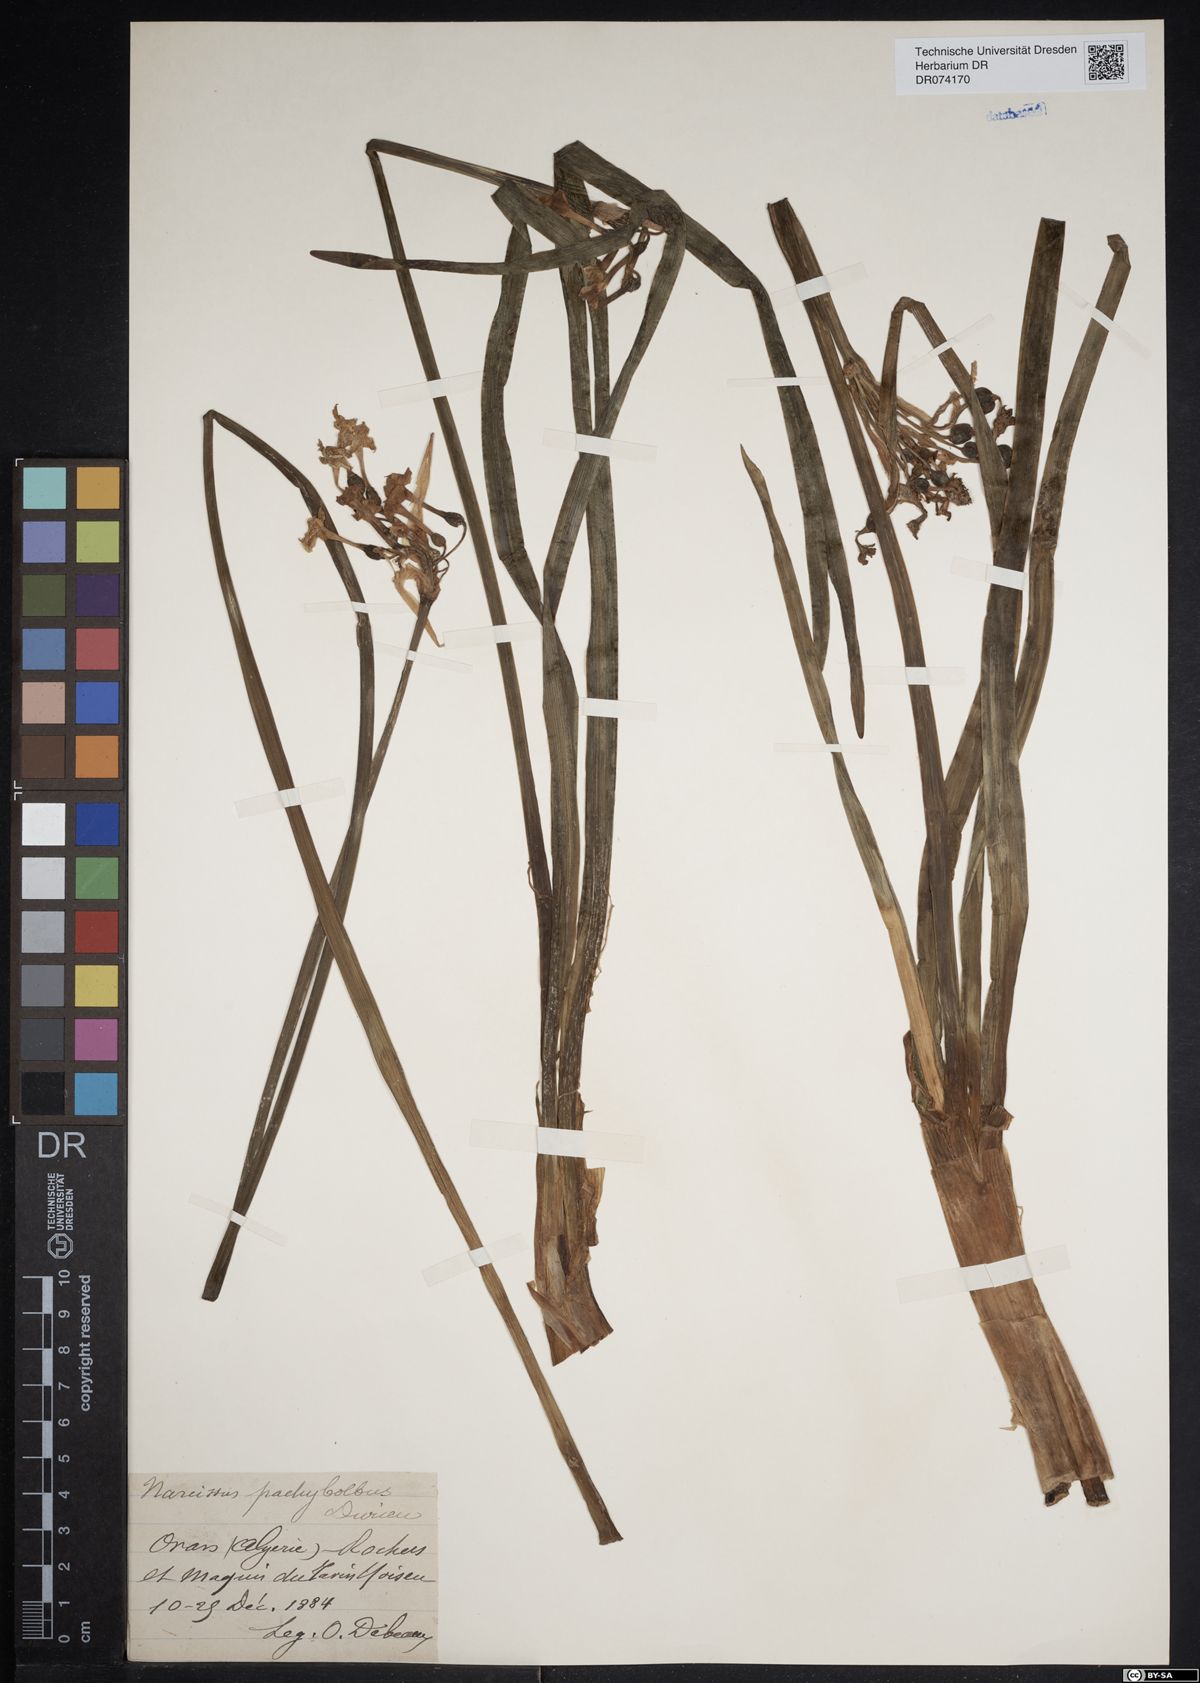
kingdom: Plantae
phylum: Tracheophyta
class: Liliopsida
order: Asparagales
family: Amaryllidaceae
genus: Narcissus
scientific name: Narcissus pachybolbus
